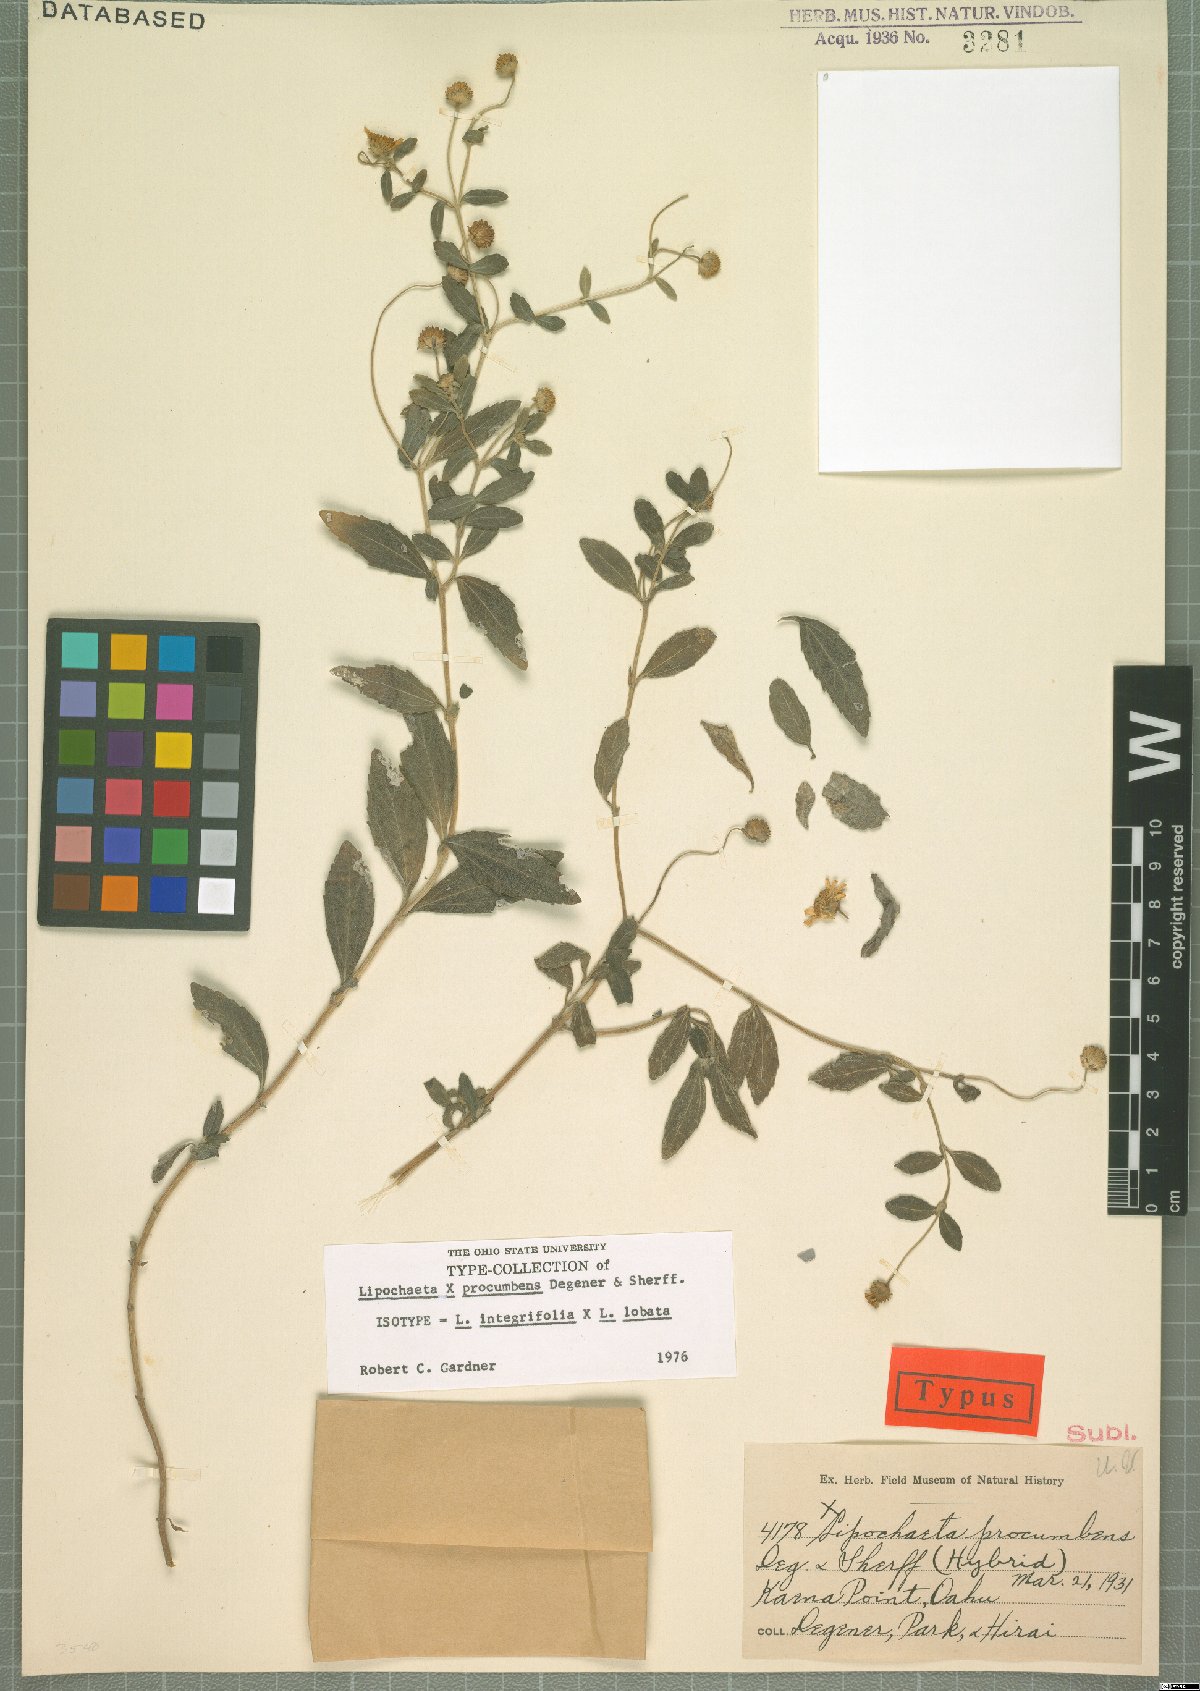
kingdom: Plantae
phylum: Tracheophyta
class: Magnoliopsida
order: Asterales
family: Asteraceae
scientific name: Asteraceae
